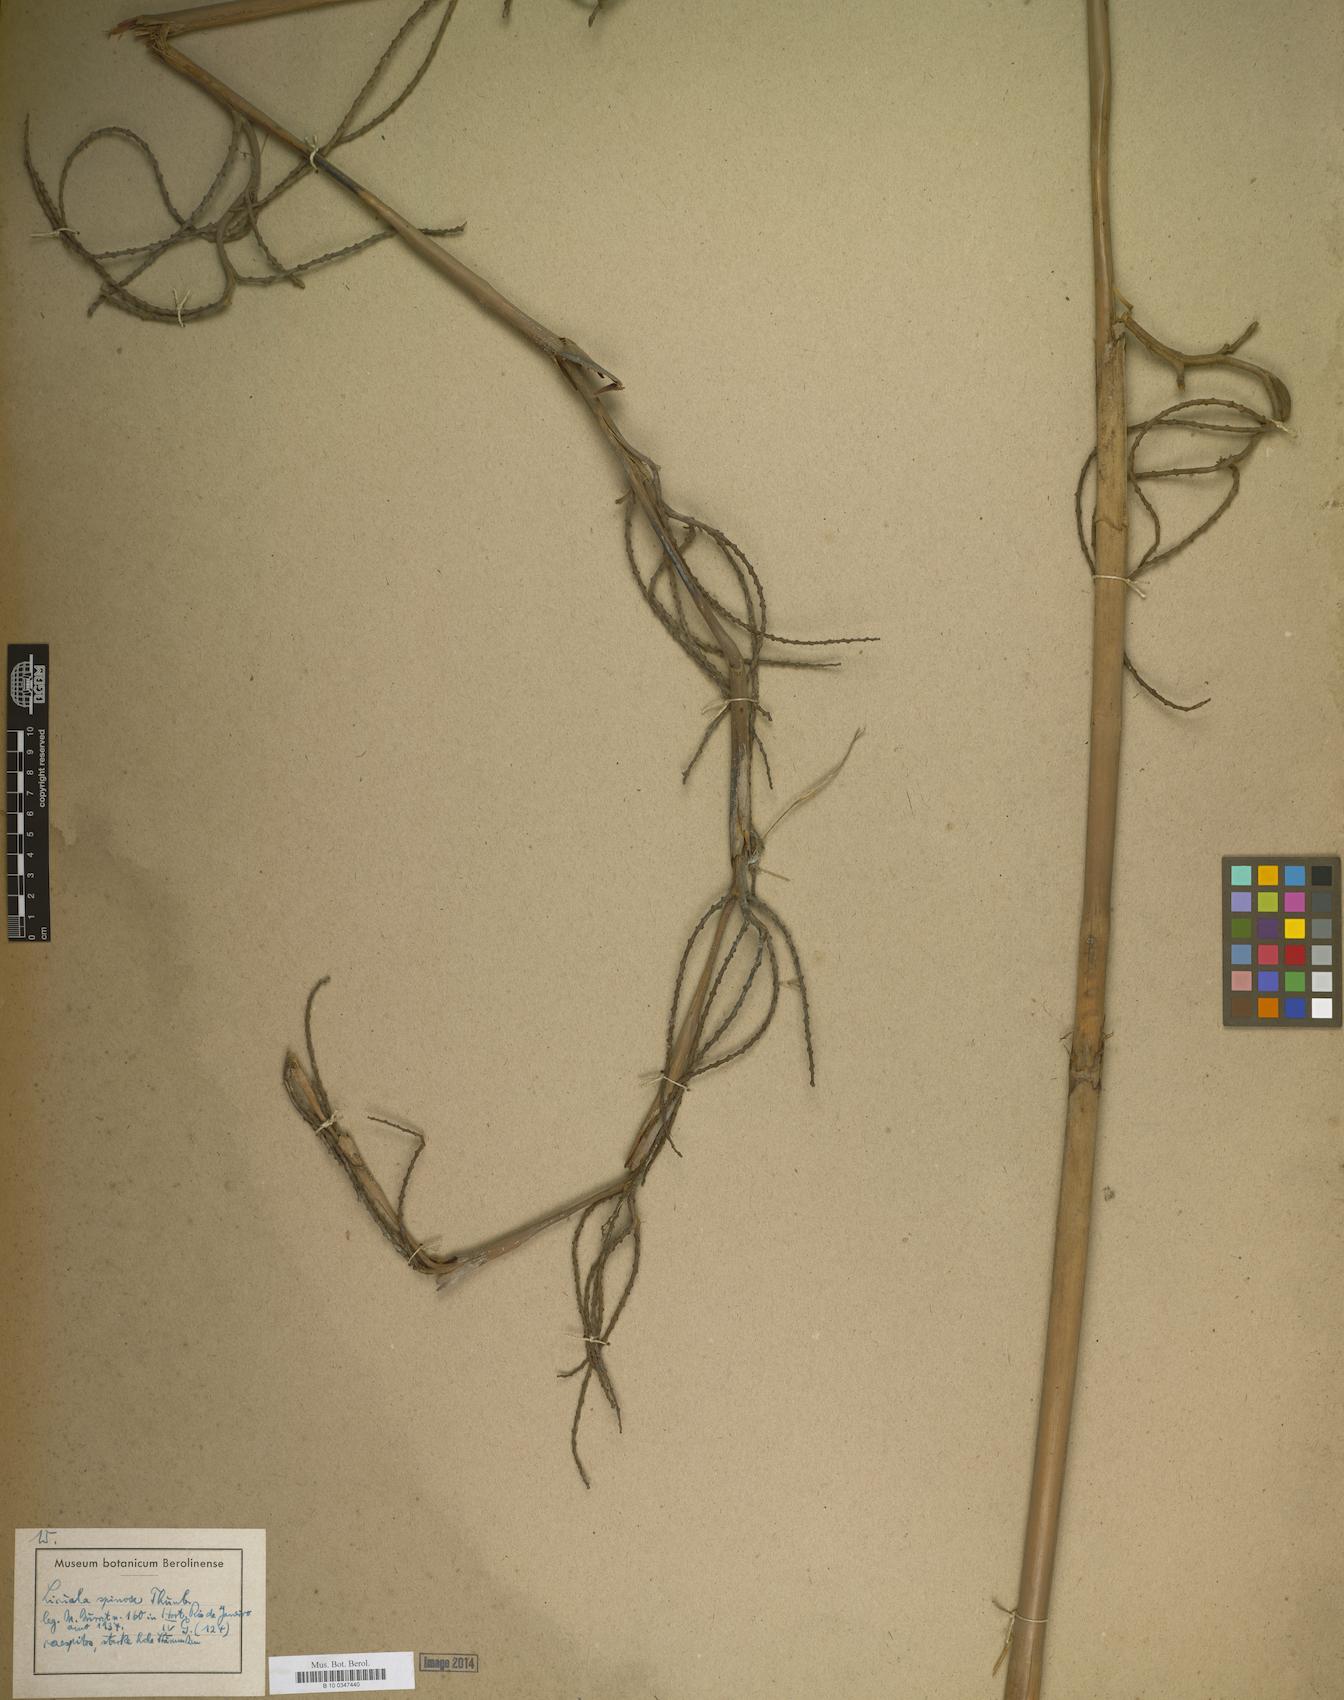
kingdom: Plantae
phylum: Tracheophyta
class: Liliopsida
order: Arecales
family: Arecaceae
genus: Licuala
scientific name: Licuala spinosa
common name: Mangrove fan palm
